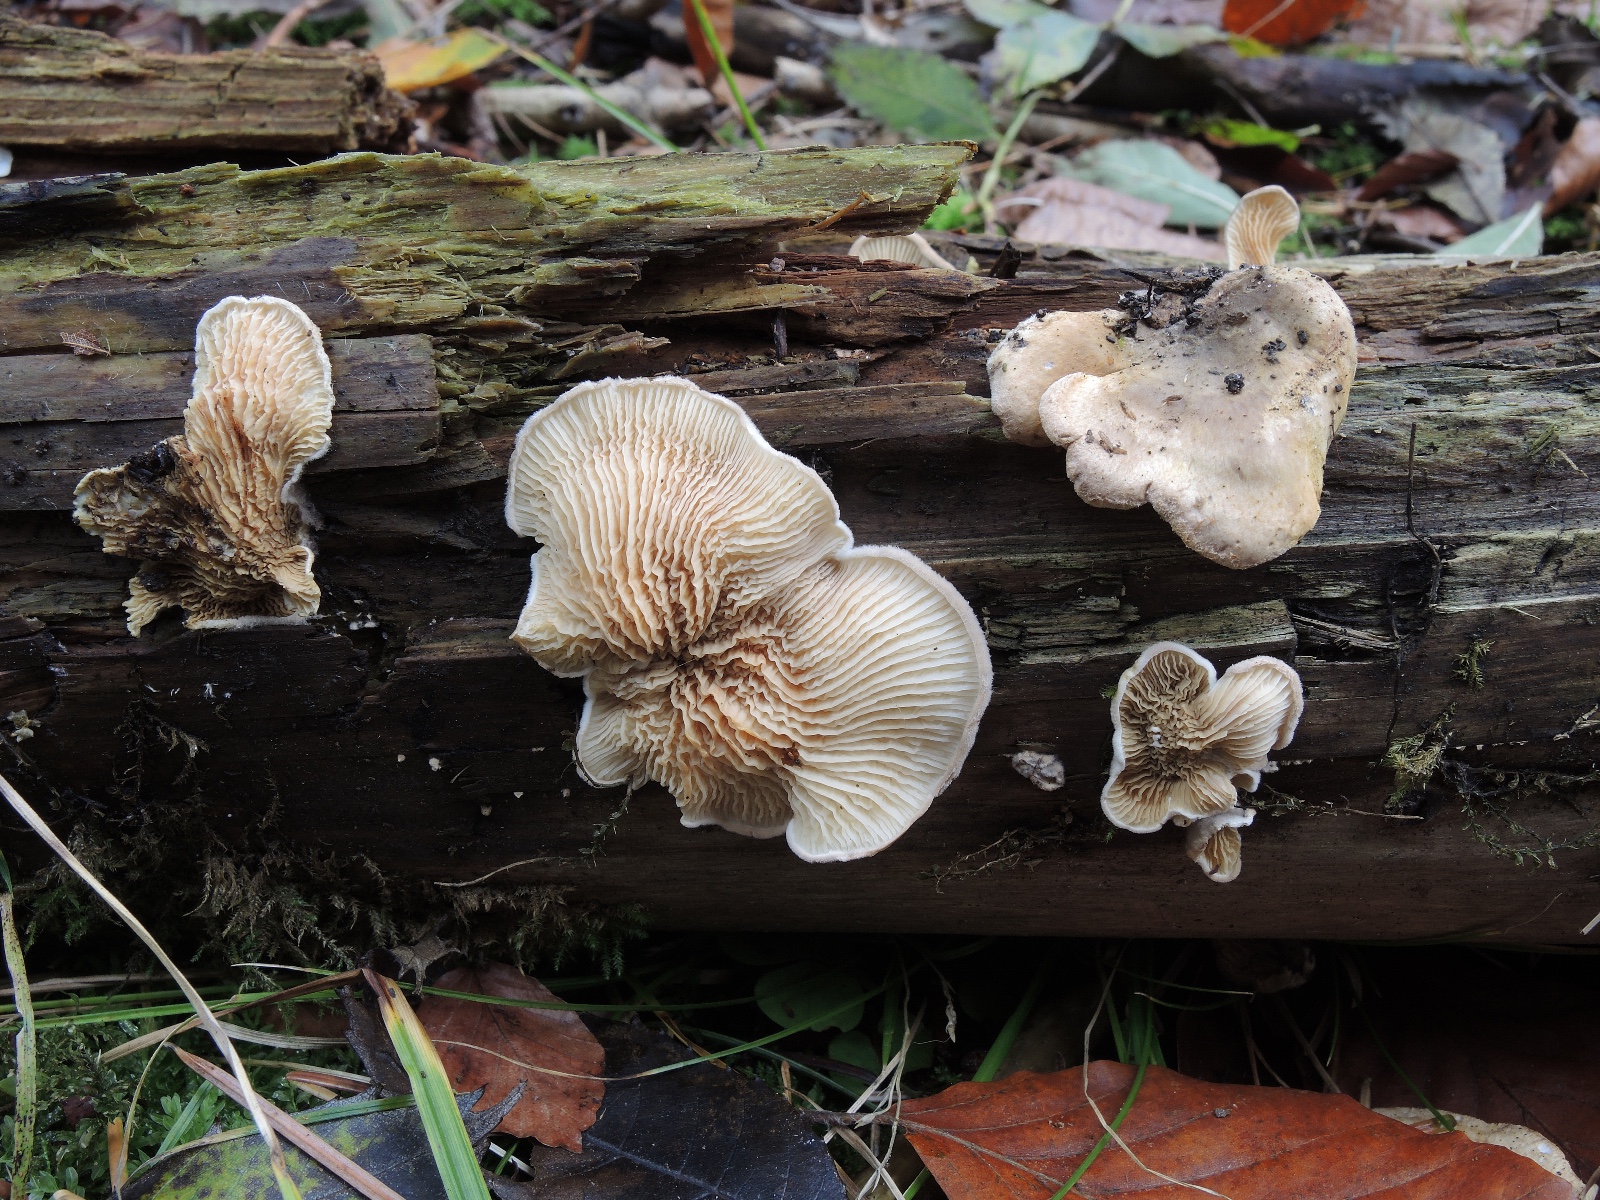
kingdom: Fungi
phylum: Basidiomycota
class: Agaricomycetes
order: Boletales
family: Tapinellaceae
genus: Tapinella
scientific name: Tapinella panuoides
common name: tømmer-viftesvamp
